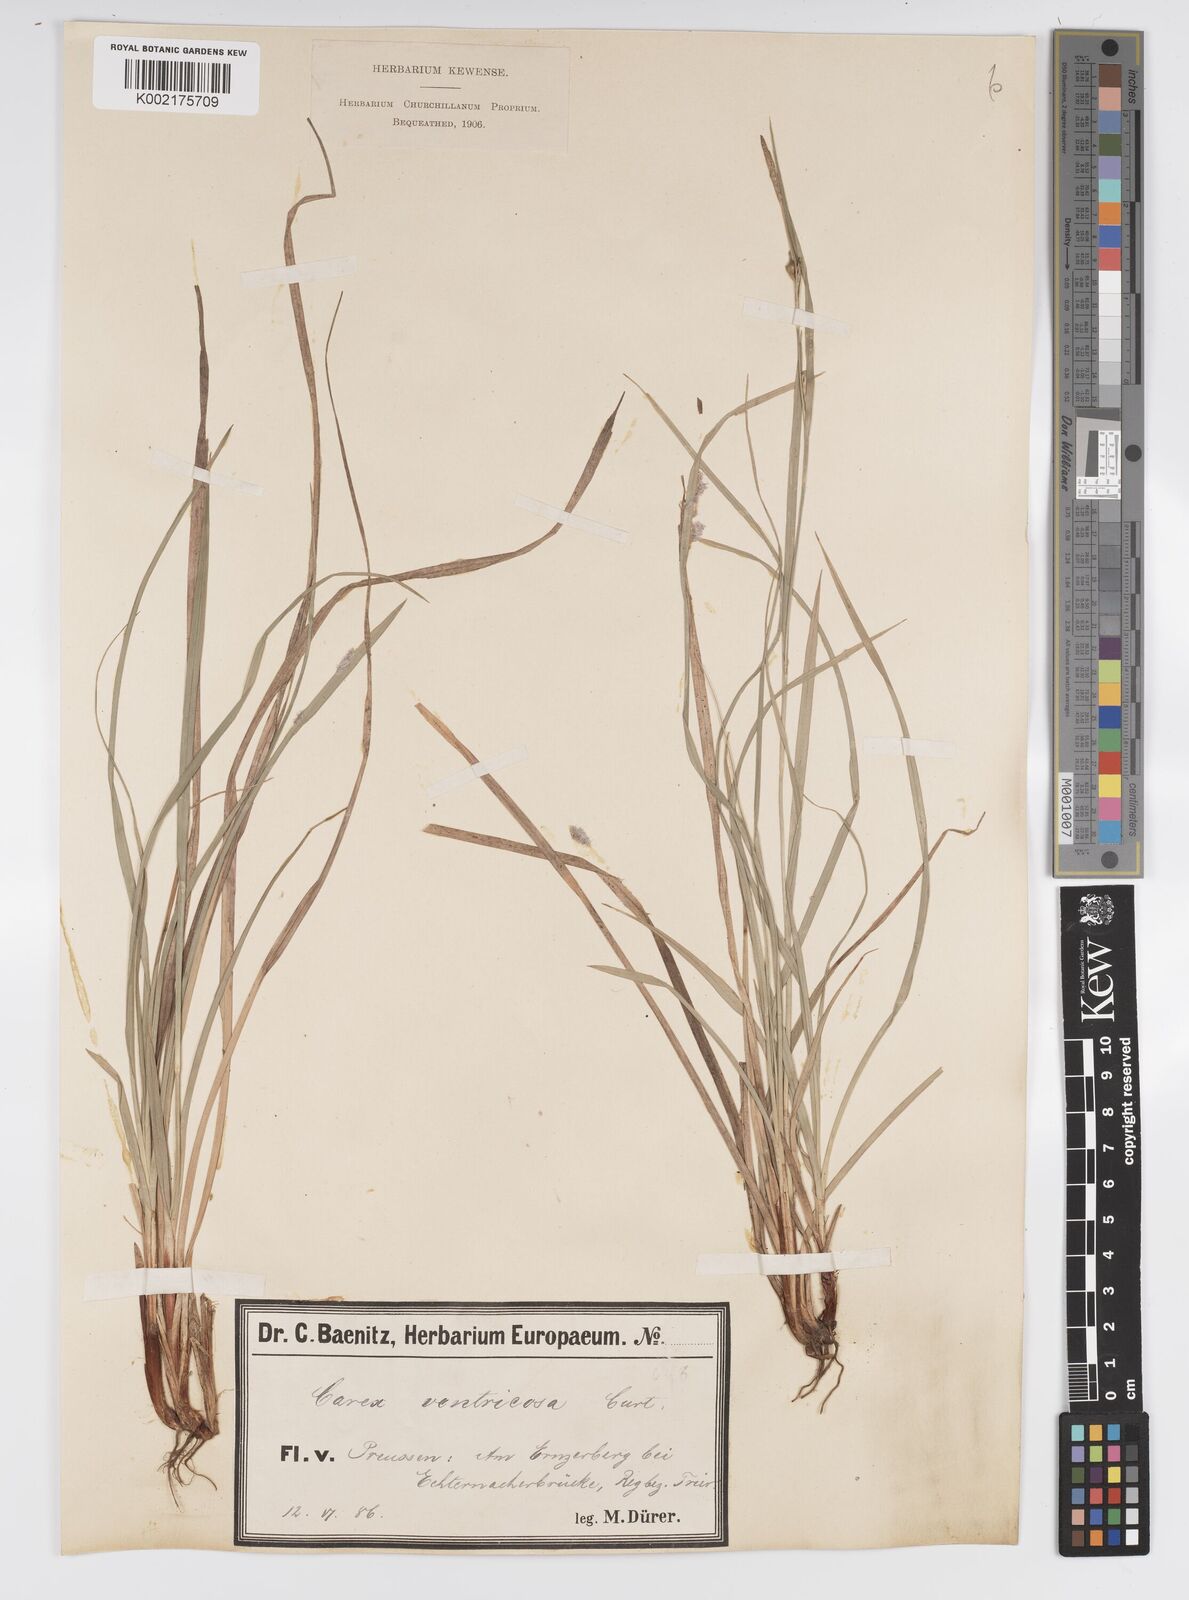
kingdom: Plantae
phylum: Tracheophyta
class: Liliopsida
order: Poales
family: Cyperaceae
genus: Carex
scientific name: Carex
